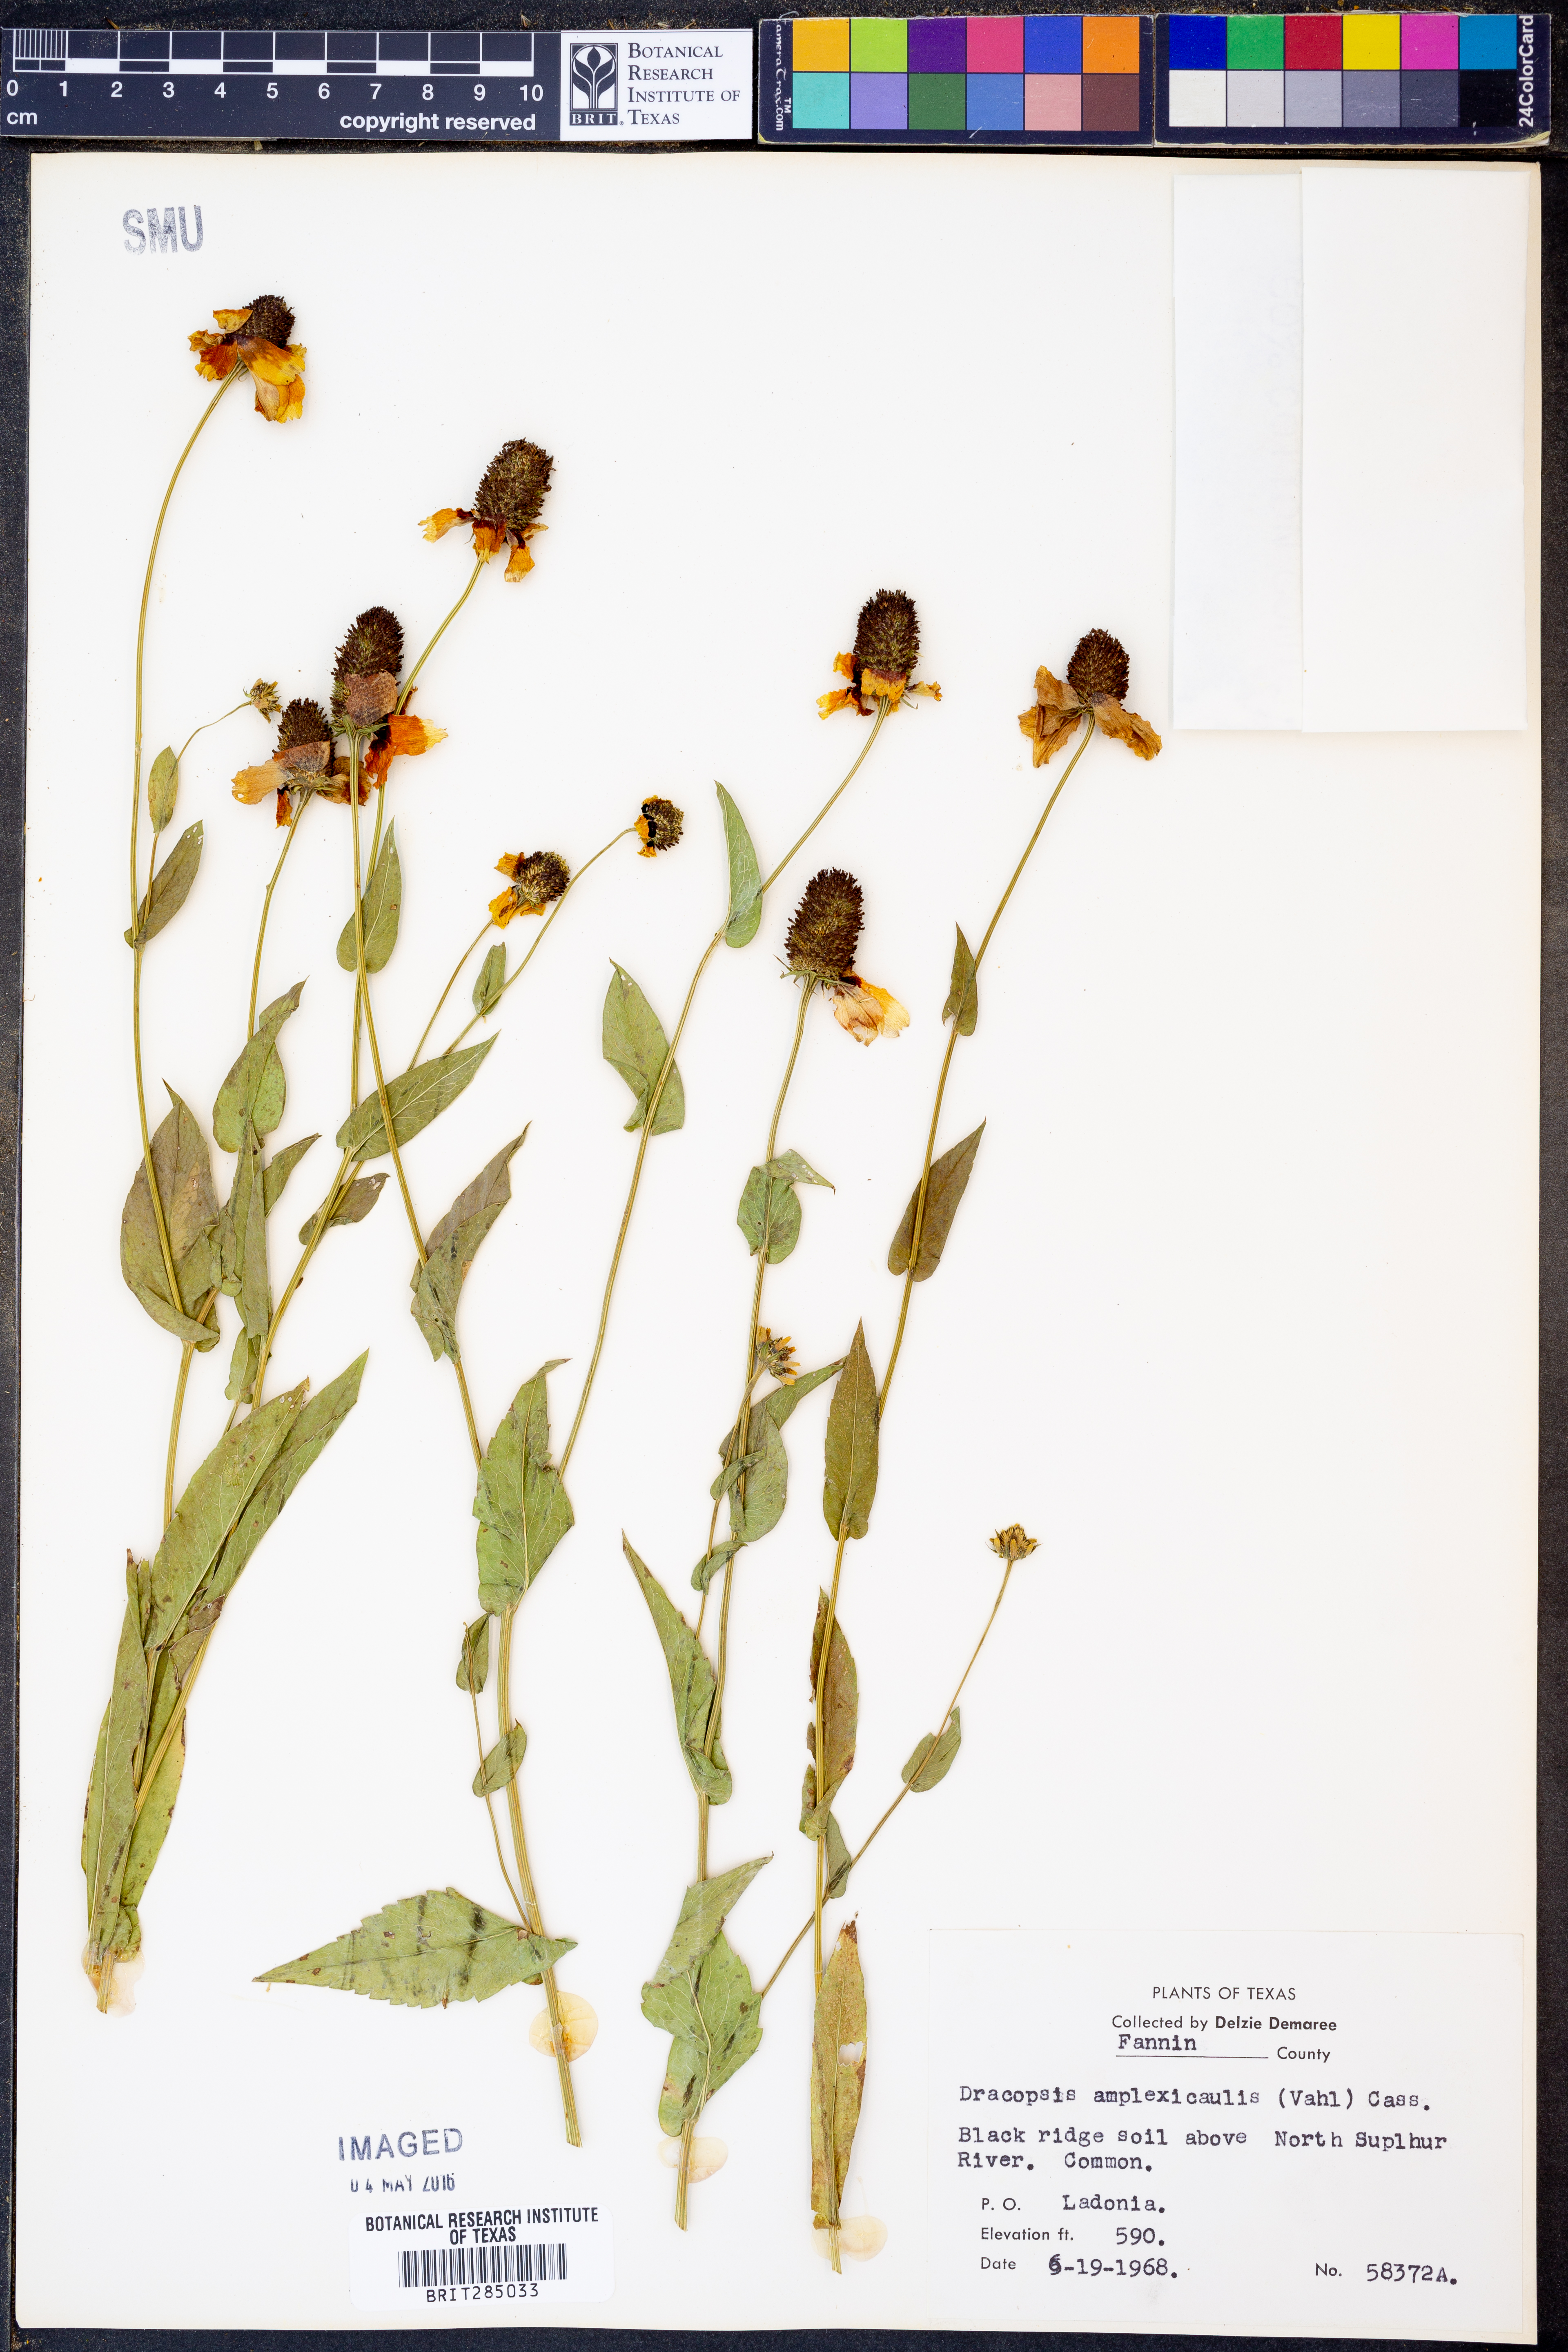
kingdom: Plantae
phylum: Tracheophyta
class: Magnoliopsida
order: Asterales
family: Asteraceae
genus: Rudbeckia
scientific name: Rudbeckia amplexicaulis
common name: Clasping-leaf coneflower
